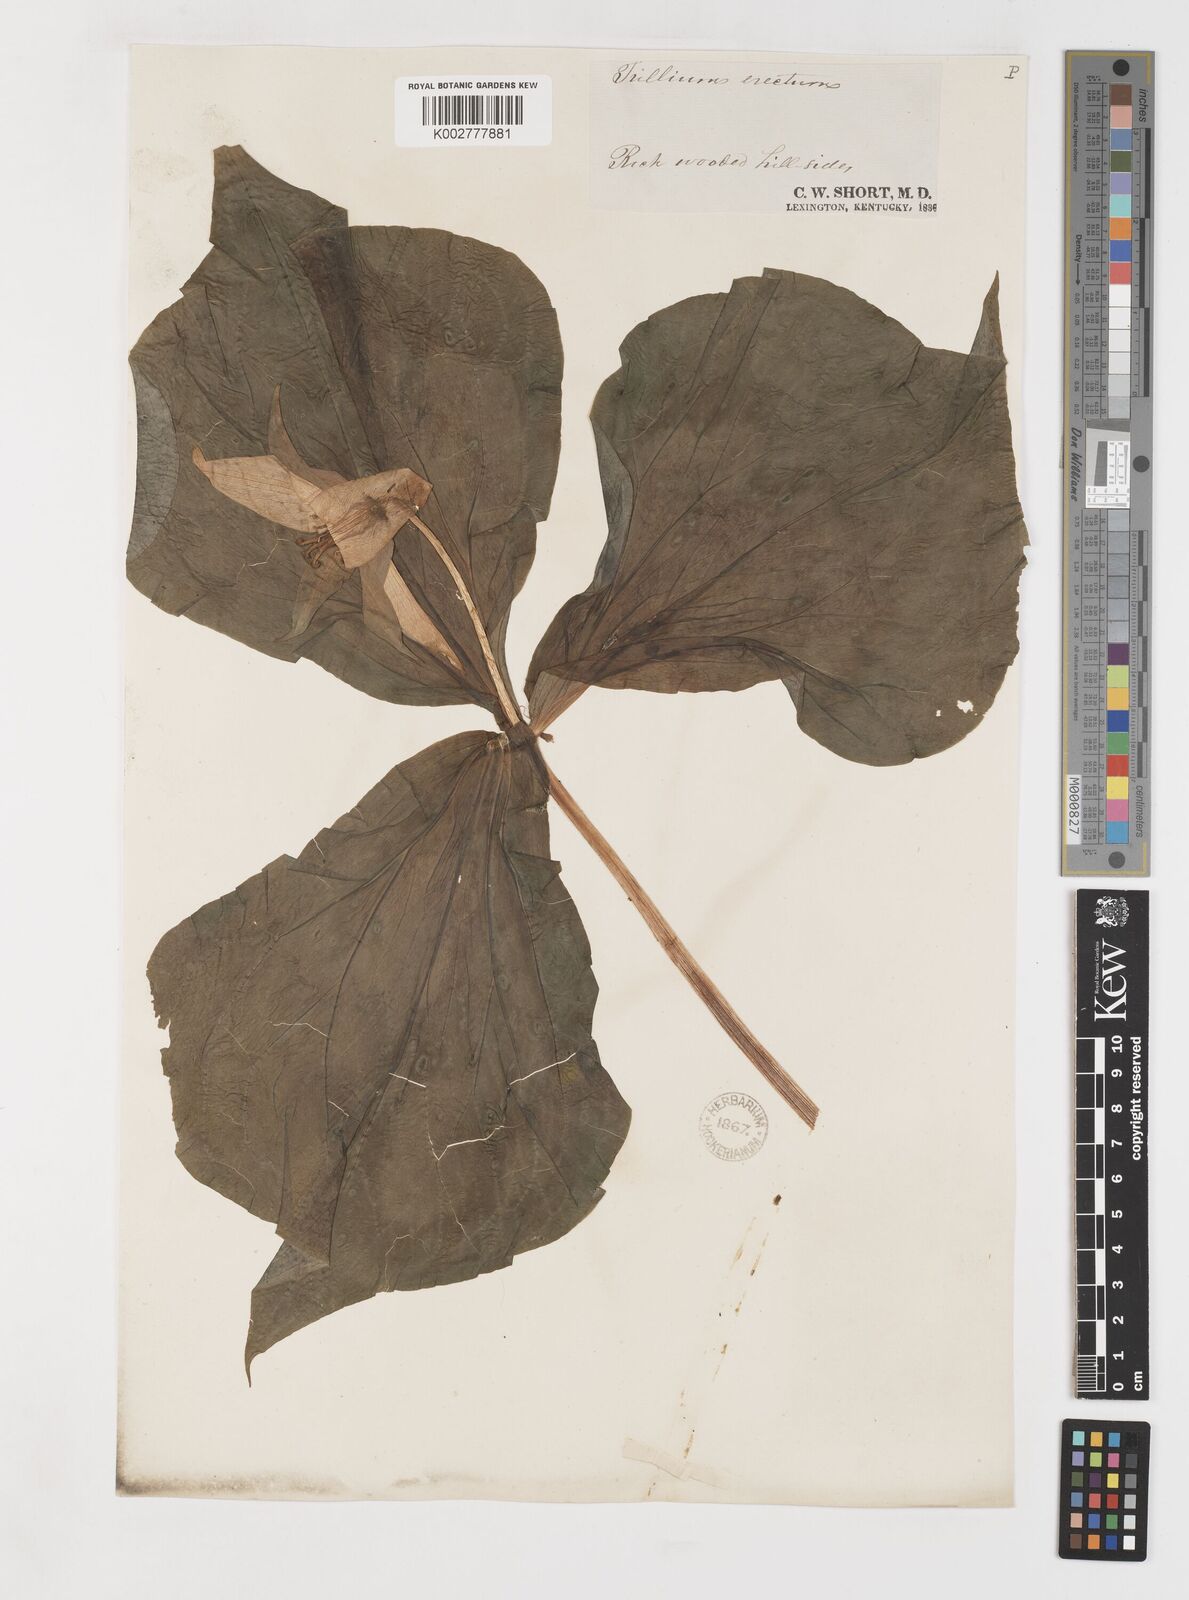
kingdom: Plantae
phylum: Tracheophyta
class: Liliopsida
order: Liliales
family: Melanthiaceae
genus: Trillium
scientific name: Trillium erectum
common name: Purple trillium
